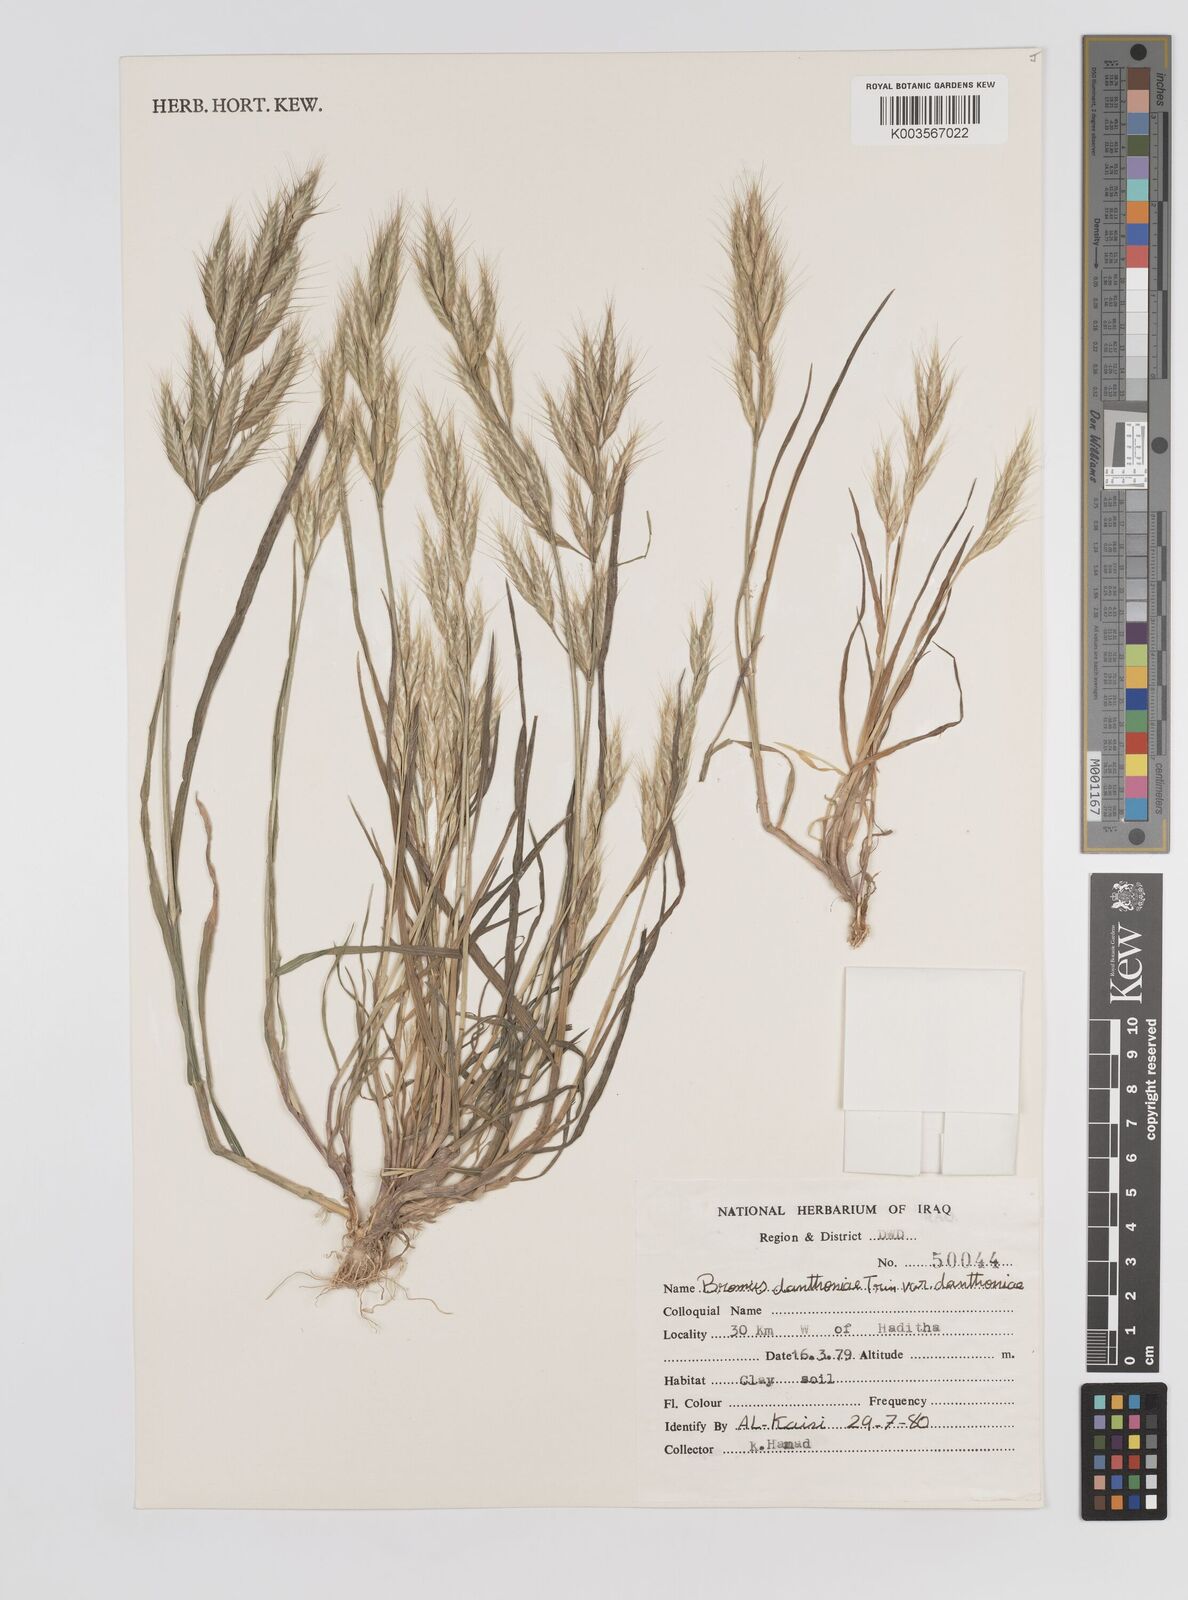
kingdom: Plantae
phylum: Tracheophyta
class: Liliopsida
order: Poales
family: Poaceae
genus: Bromus
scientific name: Bromus danthoniae
